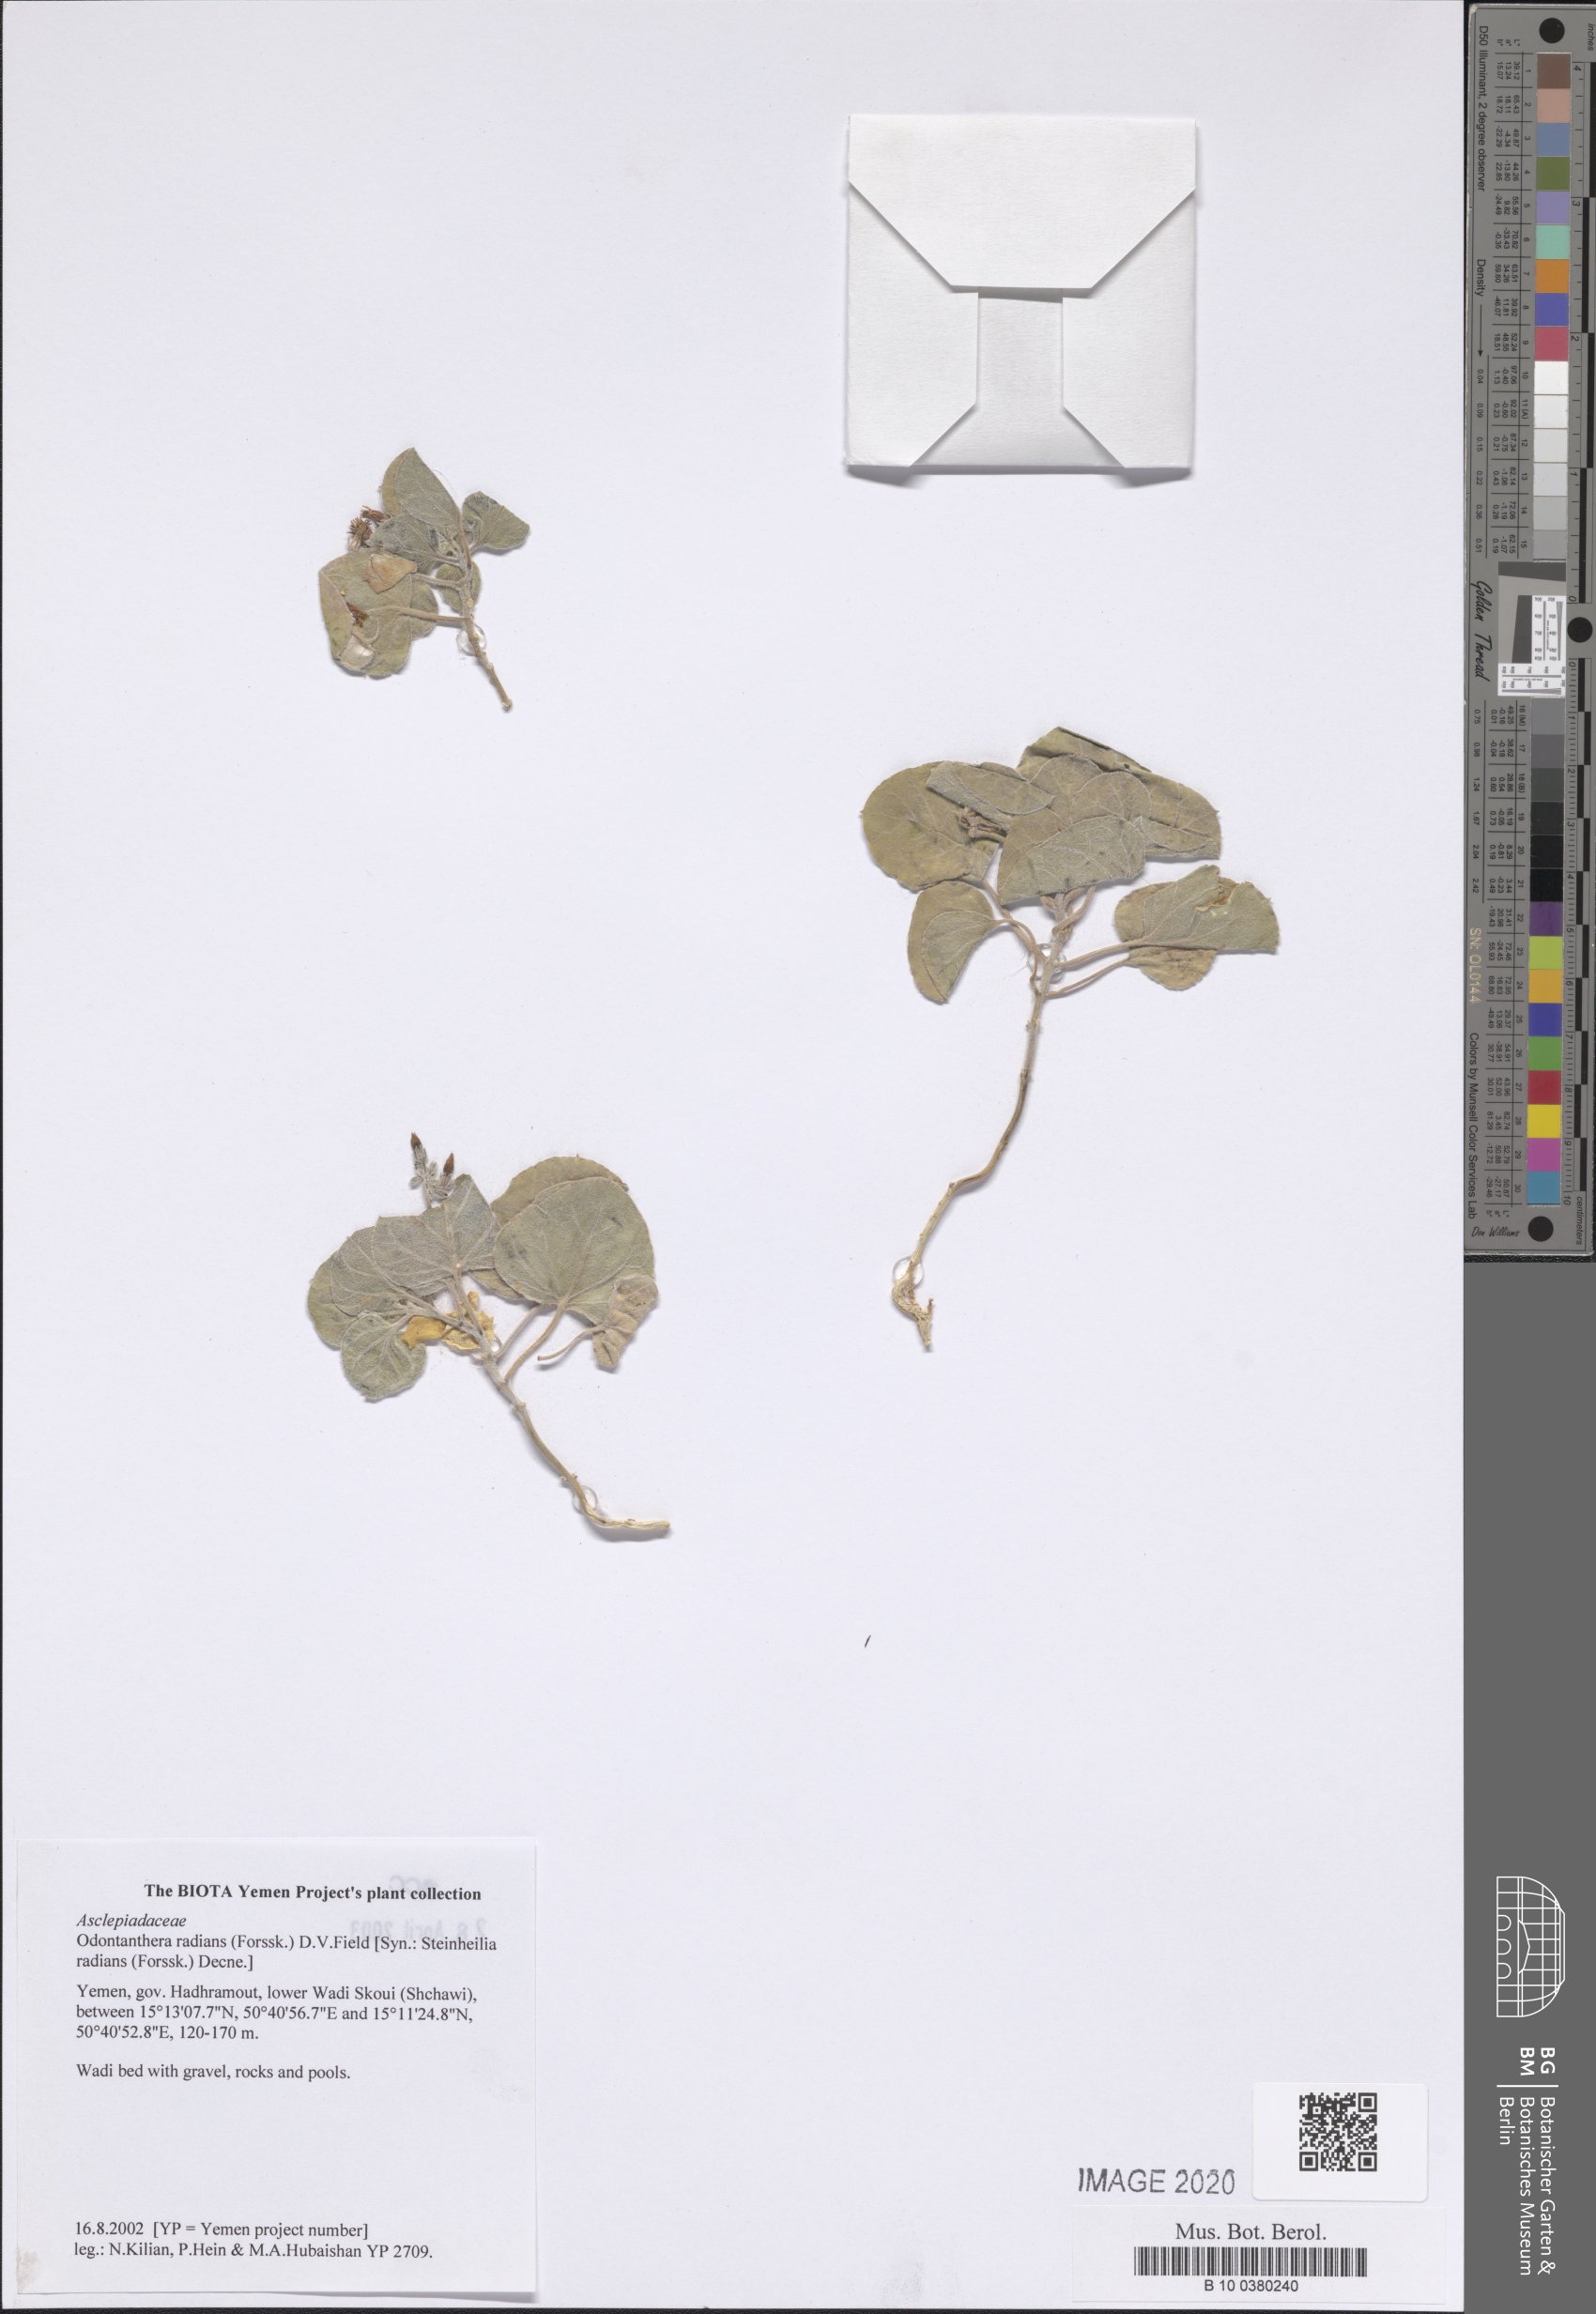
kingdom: Plantae
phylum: Tracheophyta
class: Magnoliopsida
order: Gentianales
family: Apocynaceae
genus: Cynanchum
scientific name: Cynanchum radians
